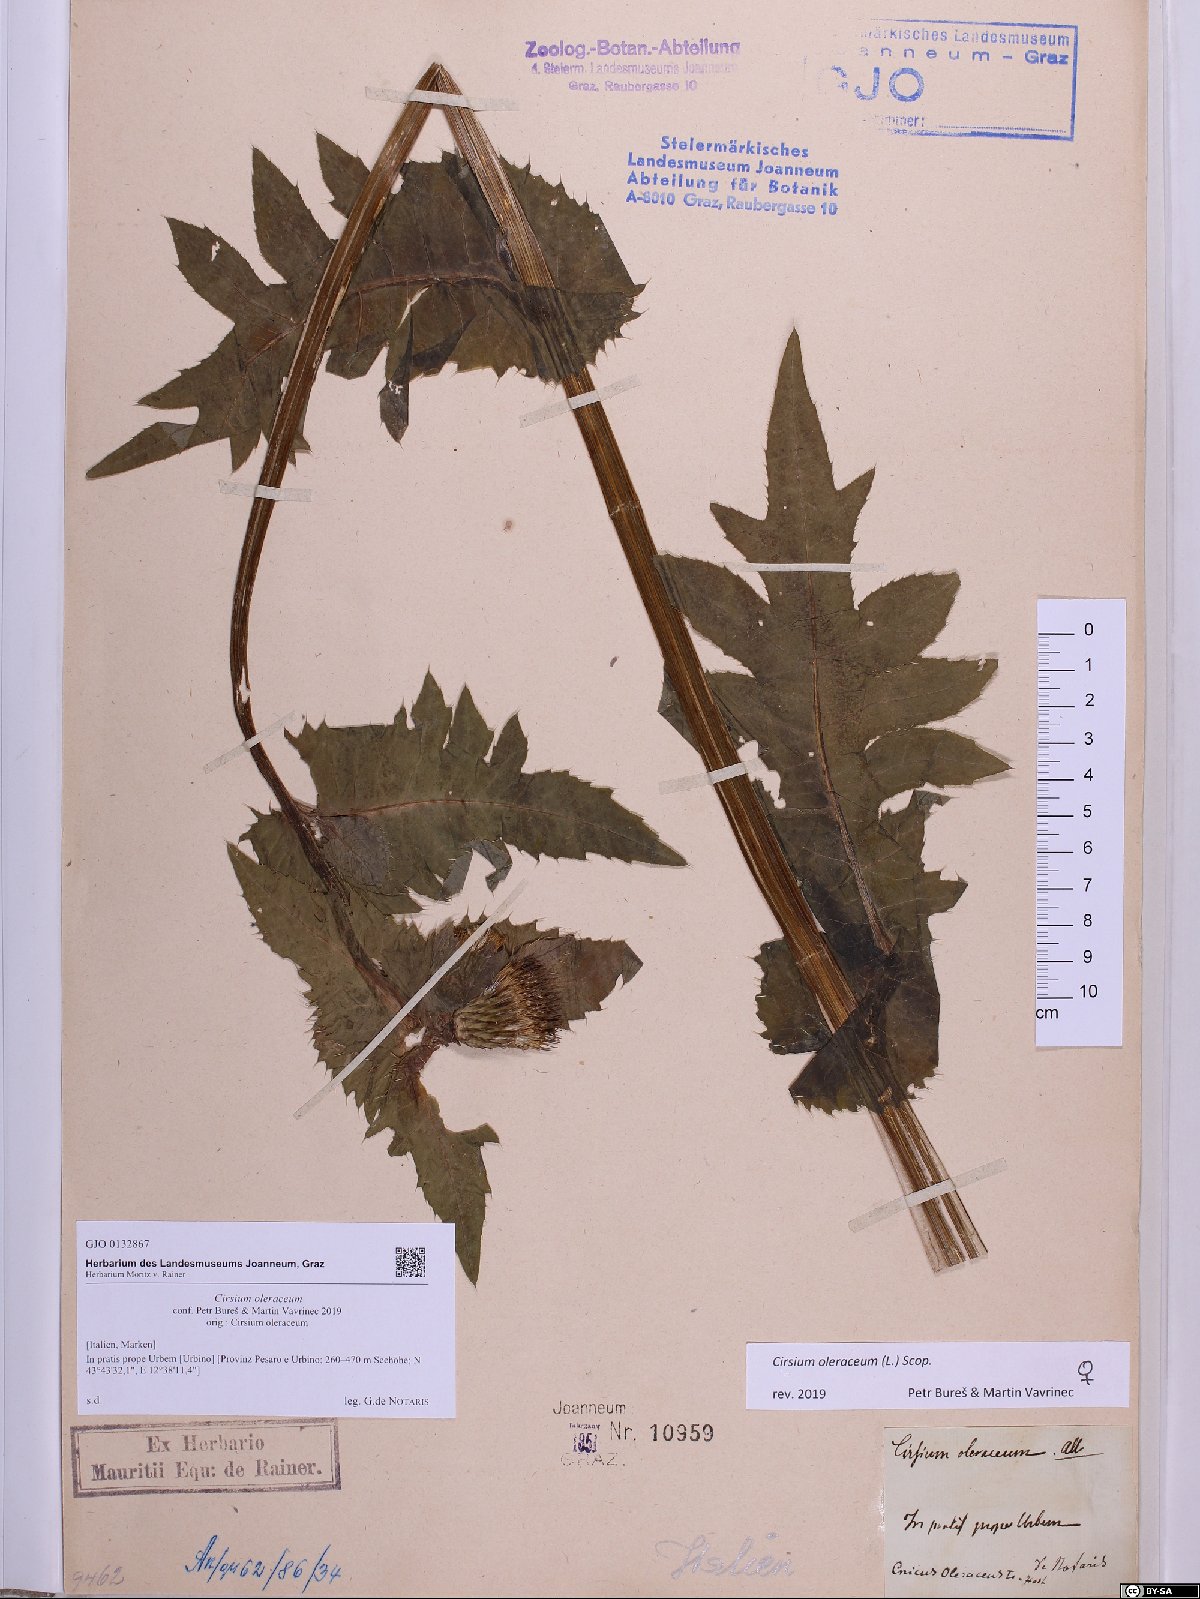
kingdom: Plantae
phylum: Tracheophyta
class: Magnoliopsida
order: Asterales
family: Asteraceae
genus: Cirsium
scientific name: Cirsium oleraceum
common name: Cabbage thistle
